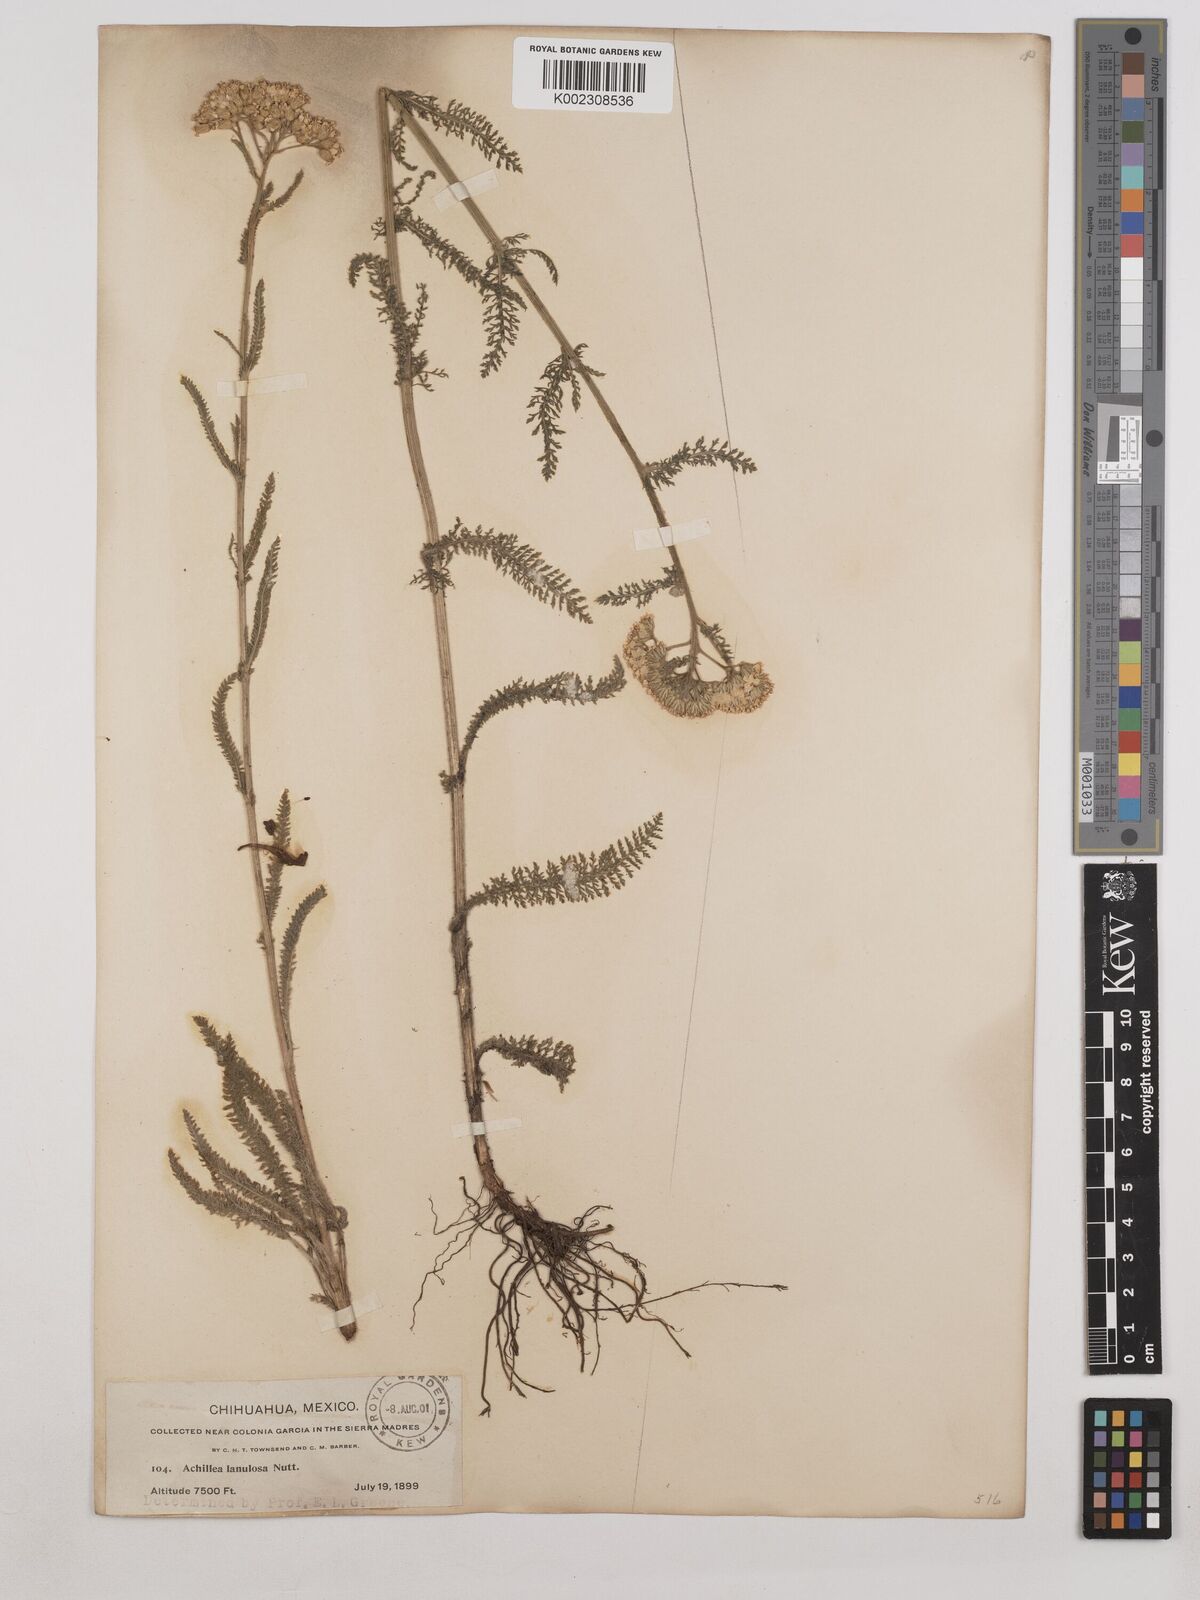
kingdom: Plantae
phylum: Tracheophyta
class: Magnoliopsida
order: Asterales
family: Asteraceae
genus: Achillea
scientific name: Achillea millefolium
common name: Yarrow
